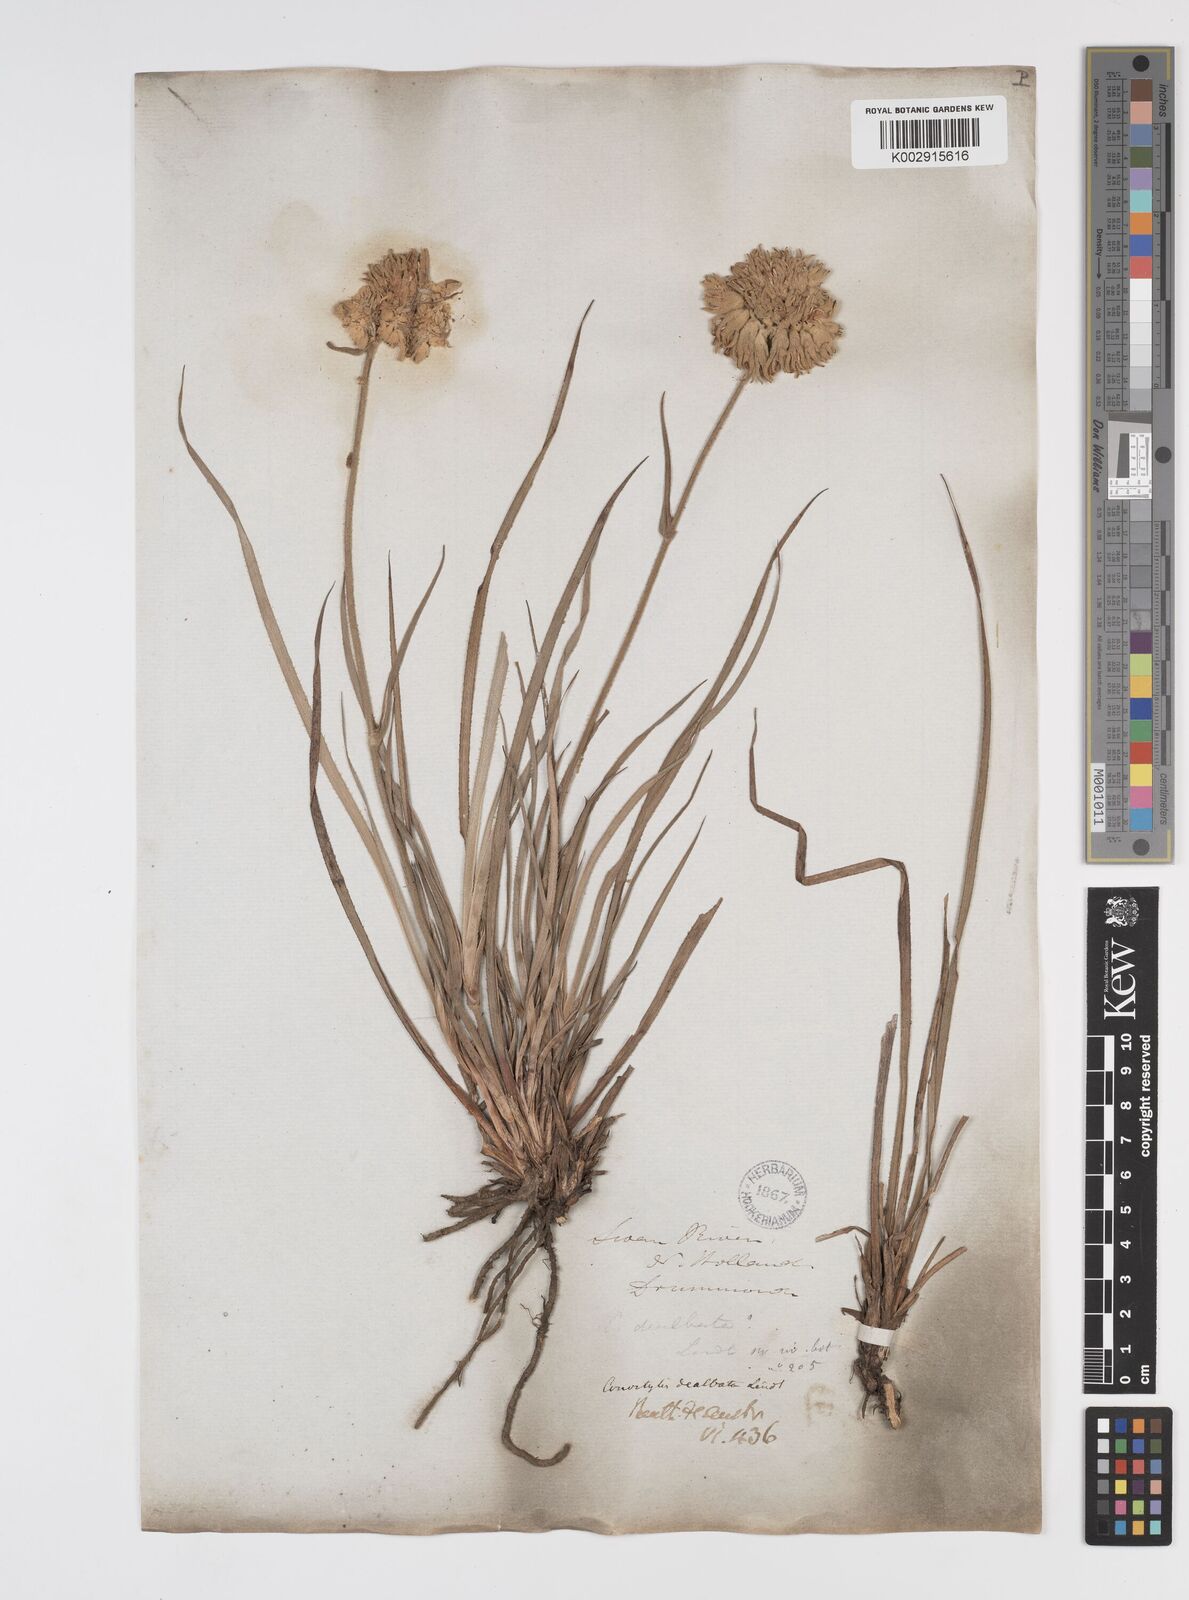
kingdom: Plantae
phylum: Tracheophyta
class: Liliopsida
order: Commelinales
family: Haemodoraceae
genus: Conostylis
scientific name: Conostylis candicans
